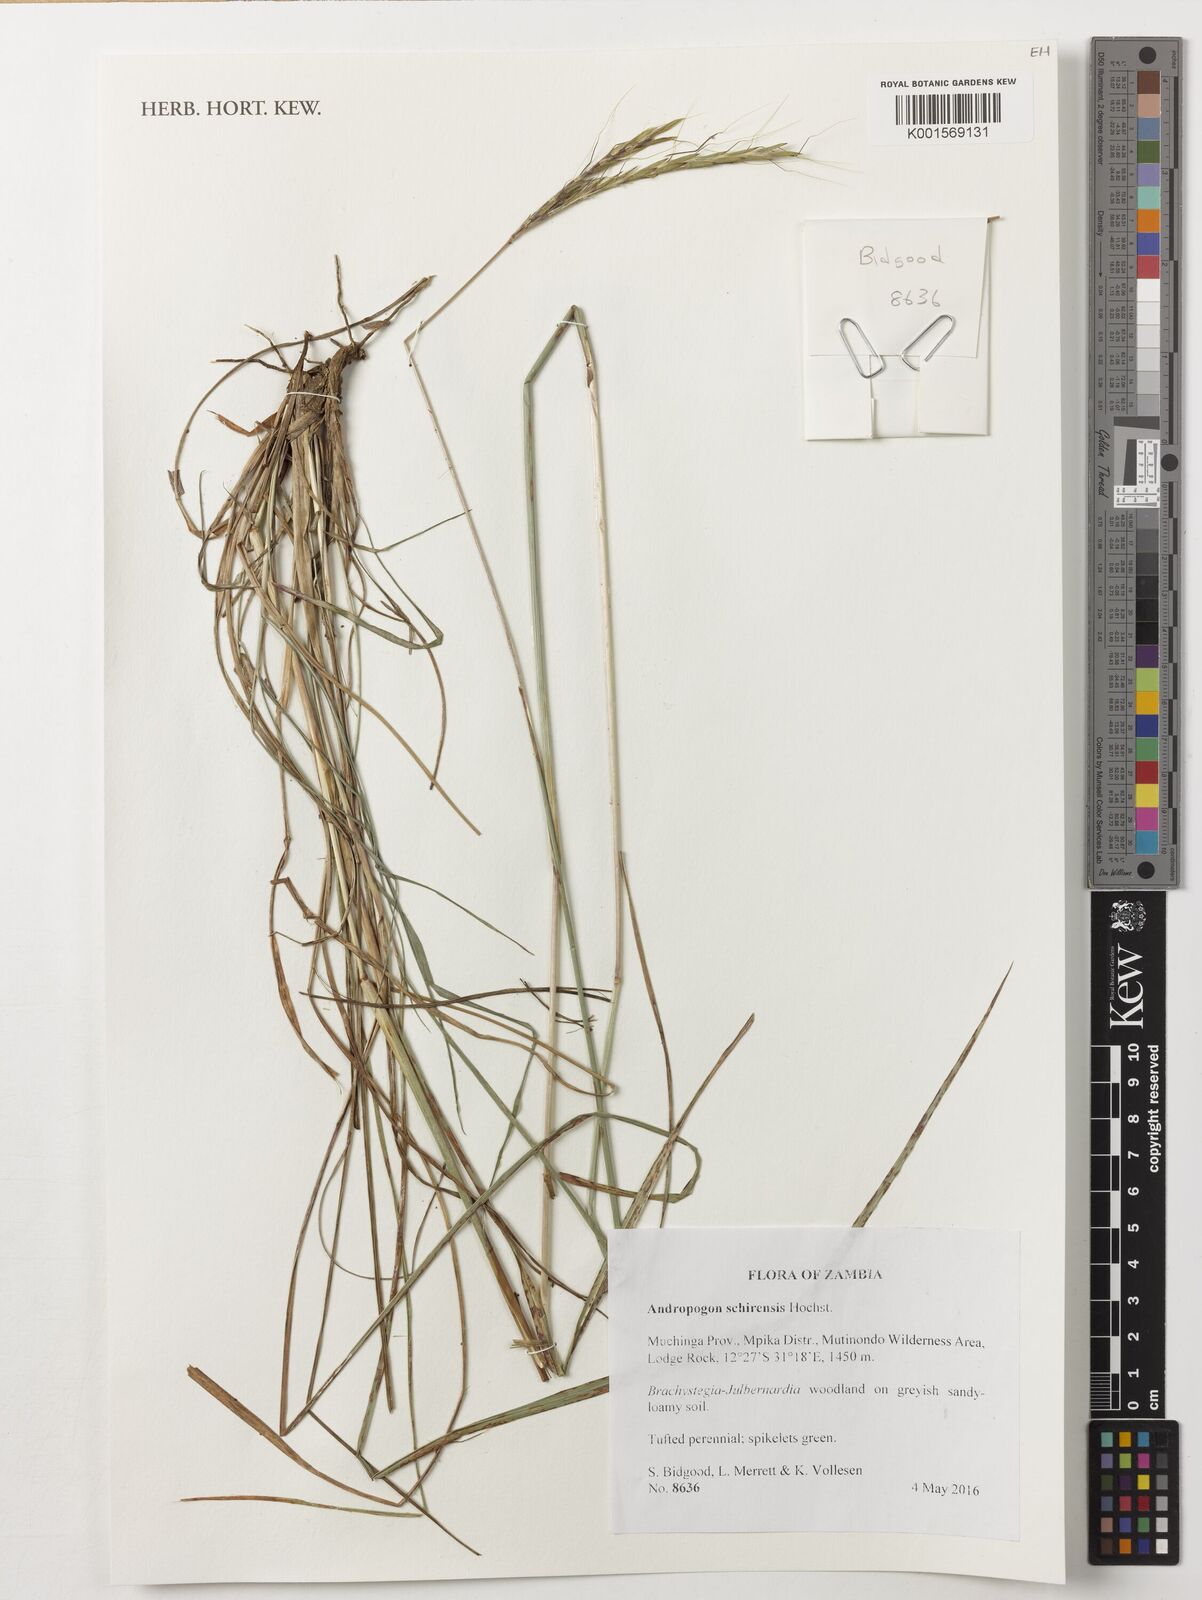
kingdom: Plantae
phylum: Tracheophyta
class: Liliopsida
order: Poales
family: Poaceae
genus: Andropogon
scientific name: Andropogon schirensis
